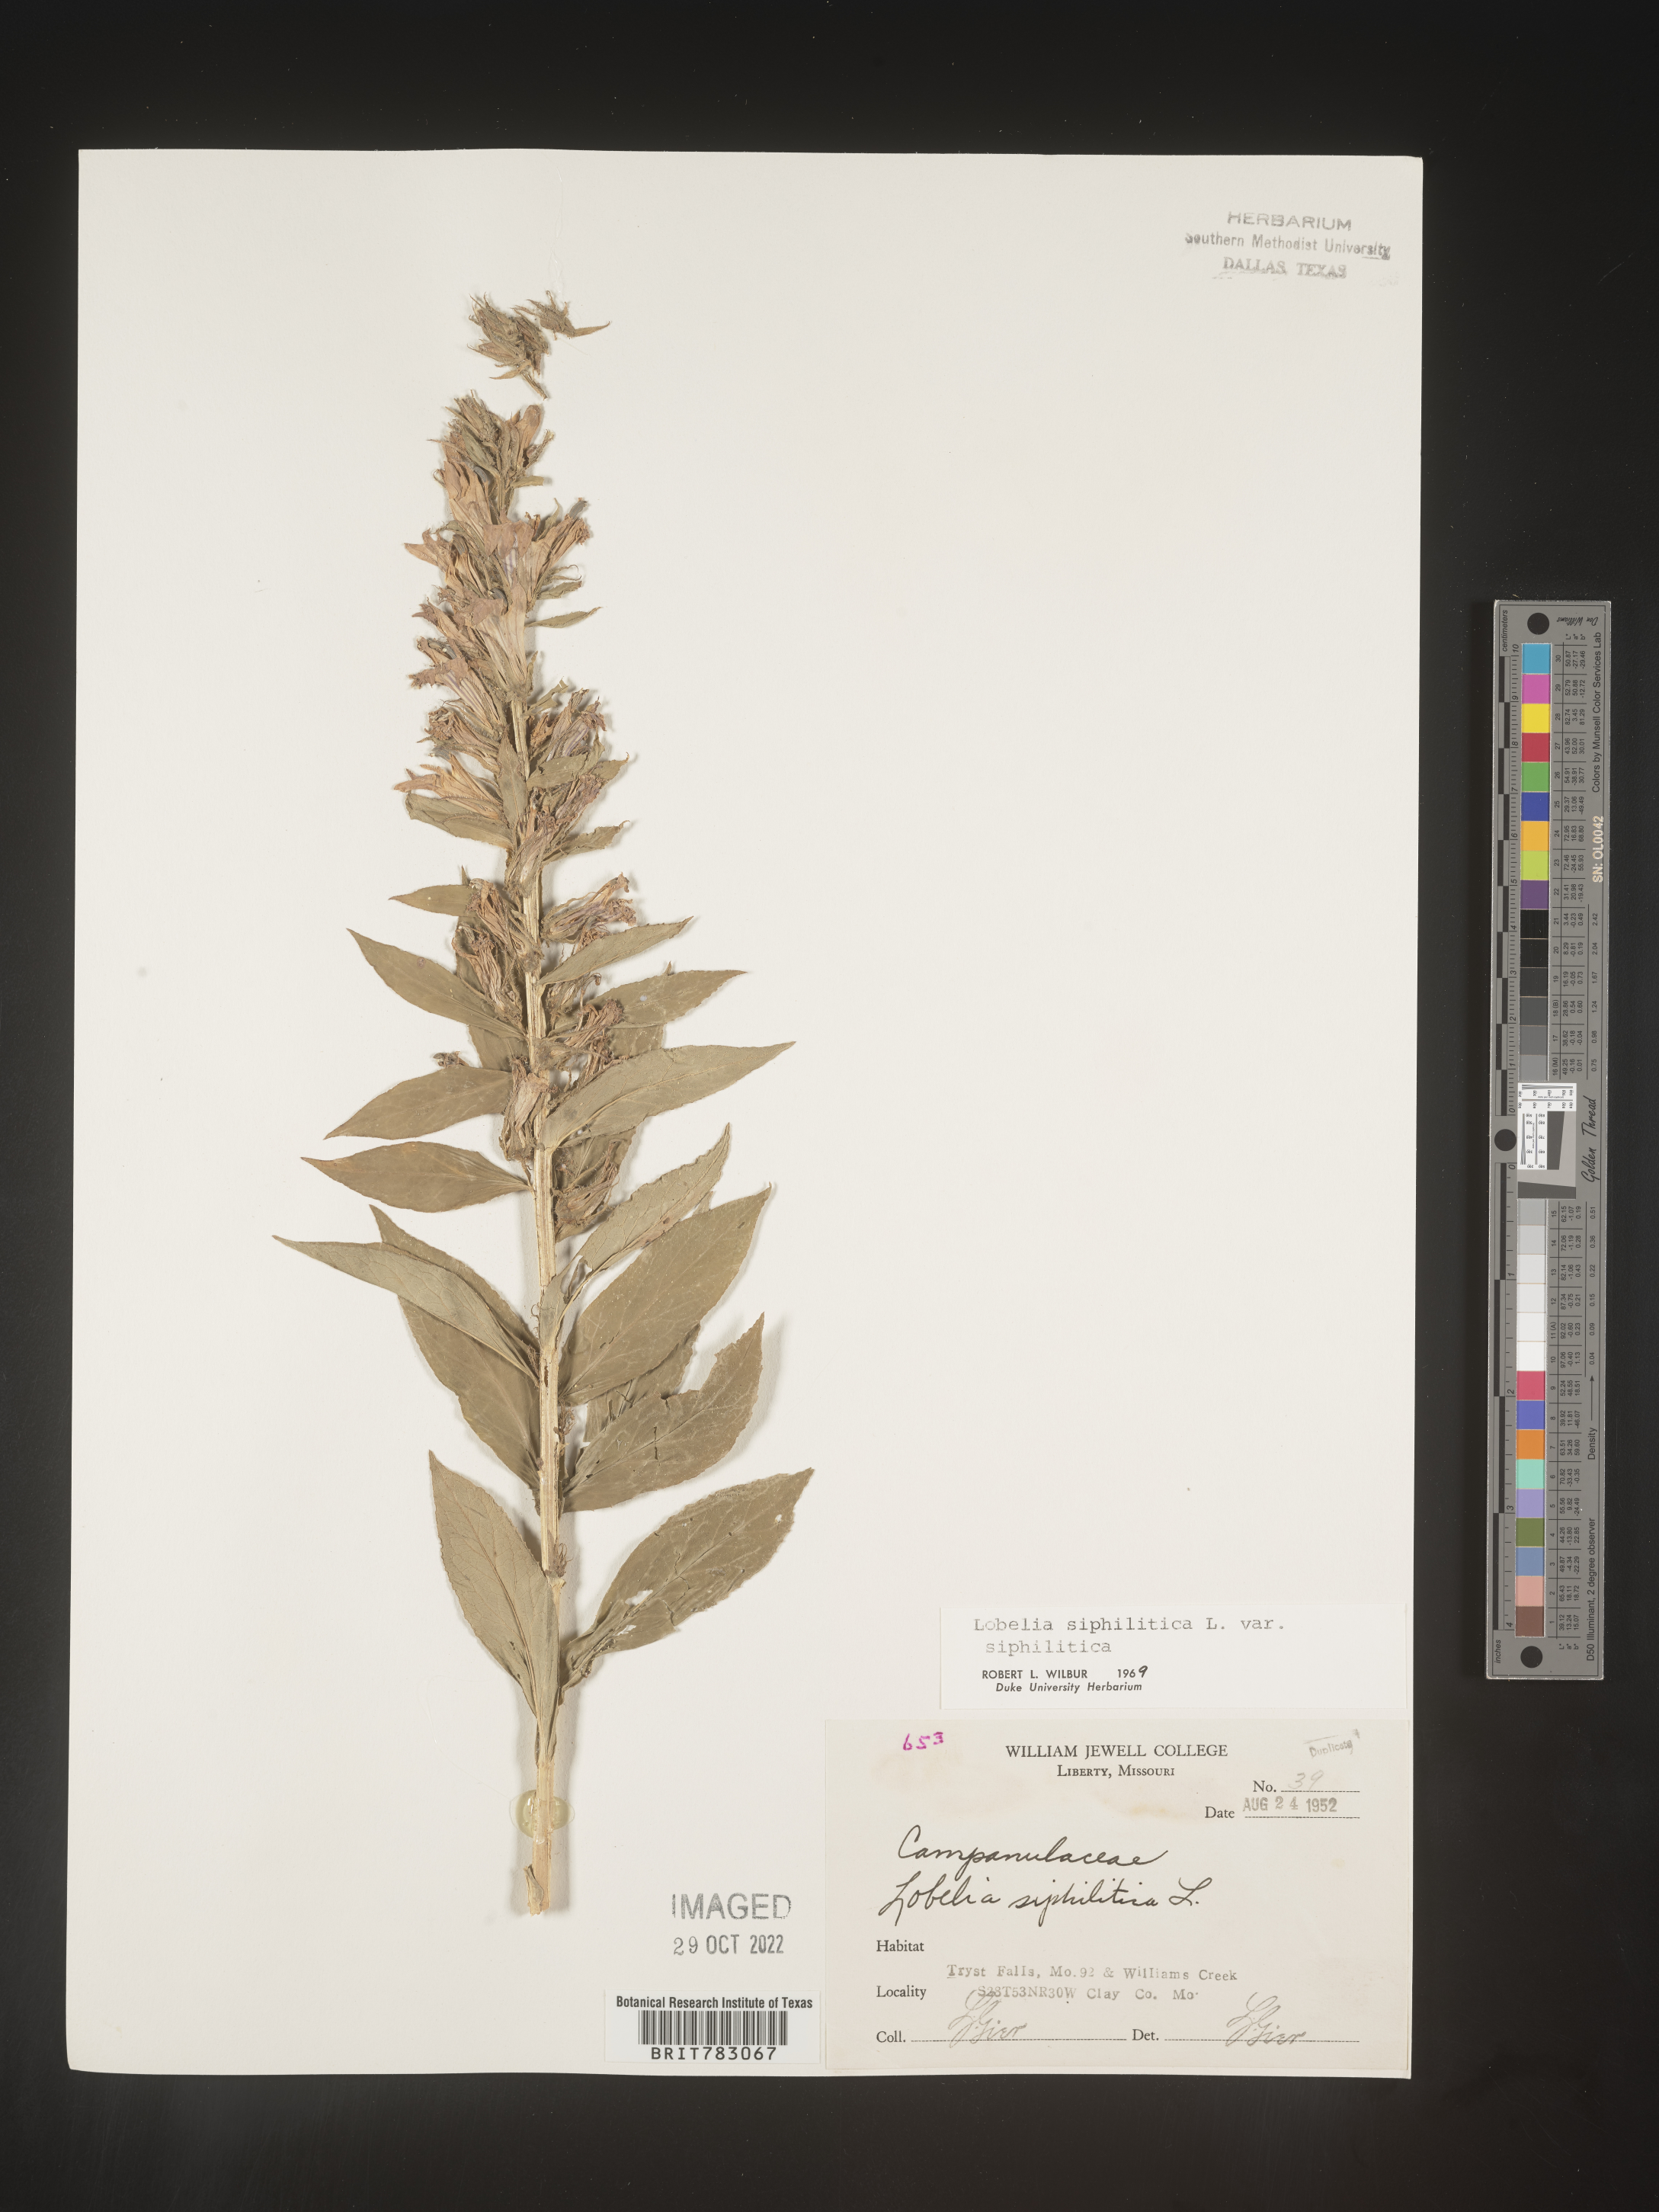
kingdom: Plantae
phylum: Tracheophyta
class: Magnoliopsida
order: Asterales
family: Campanulaceae
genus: Lobelia
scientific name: Lobelia siphilitica
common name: Great lobelia
